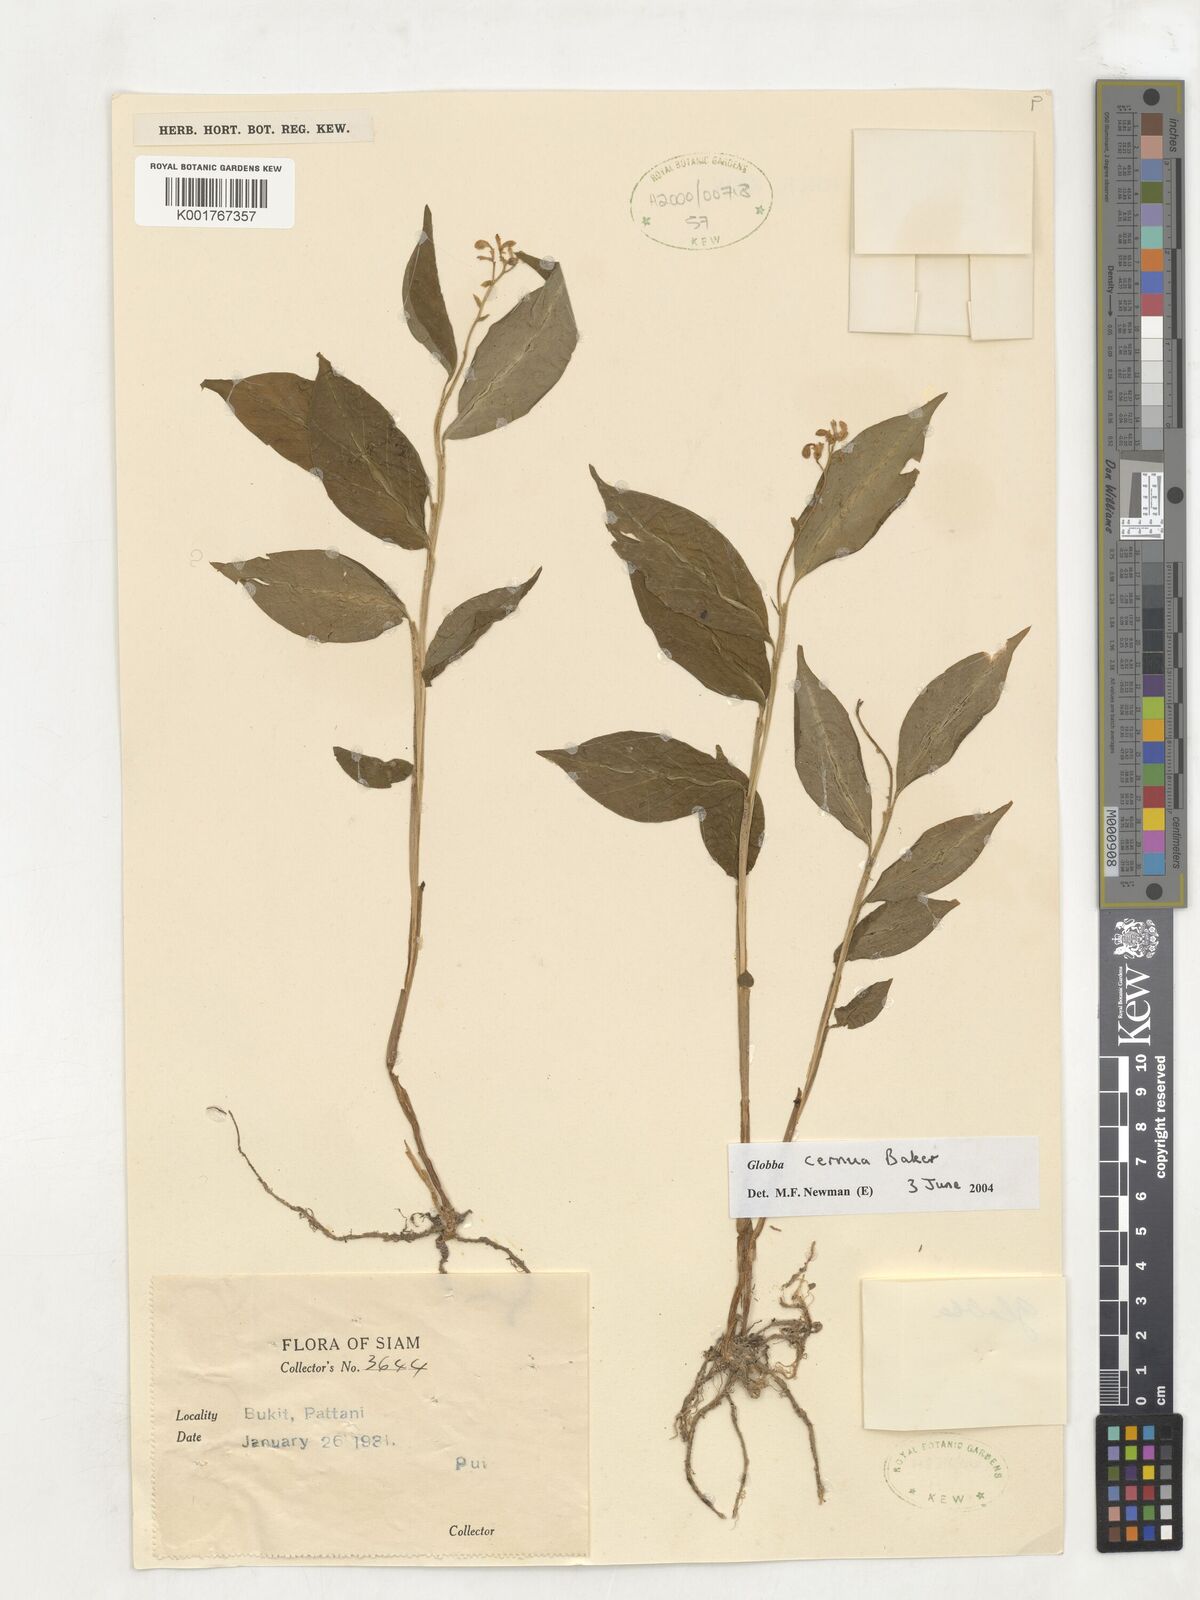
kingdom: Plantae
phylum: Tracheophyta
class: Liliopsida
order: Zingiberales
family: Zingiberaceae
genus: Globba
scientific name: Globba cernua
